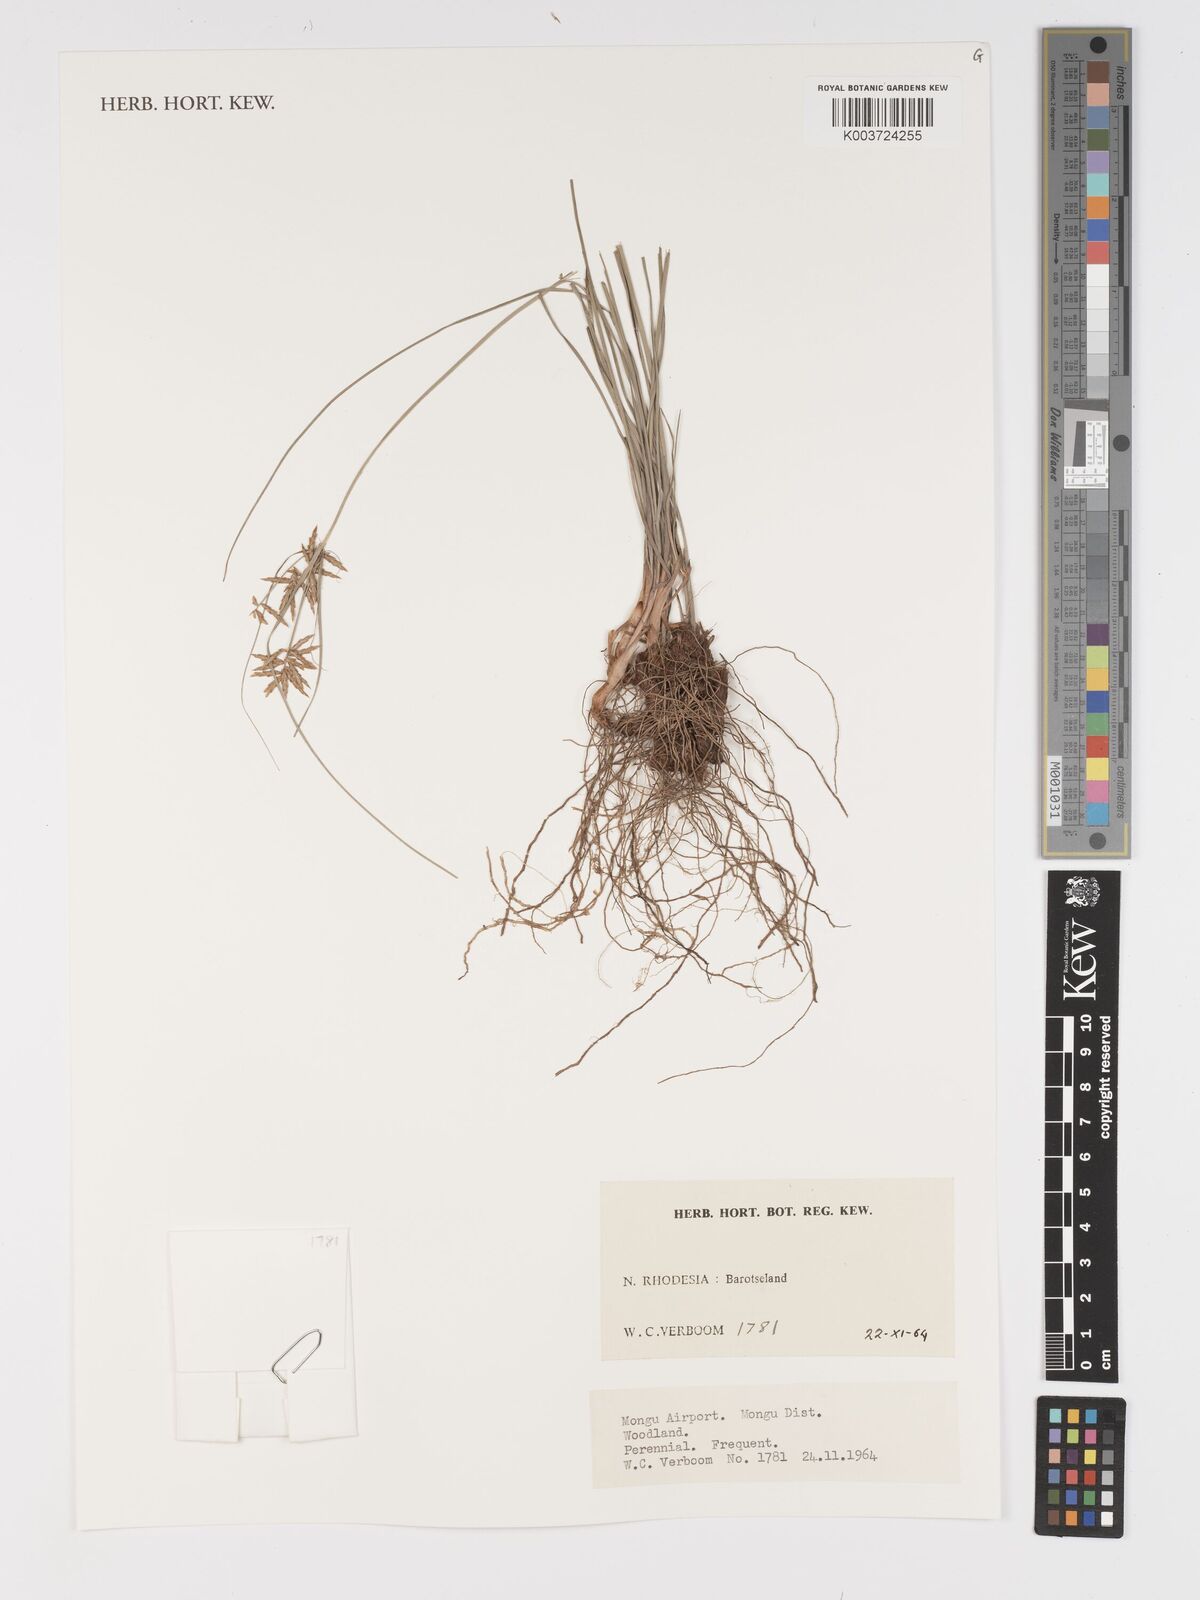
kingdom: Plantae
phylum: Tracheophyta
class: Liliopsida
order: Poales
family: Cyperaceae
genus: Cyperus
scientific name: Cyperus
